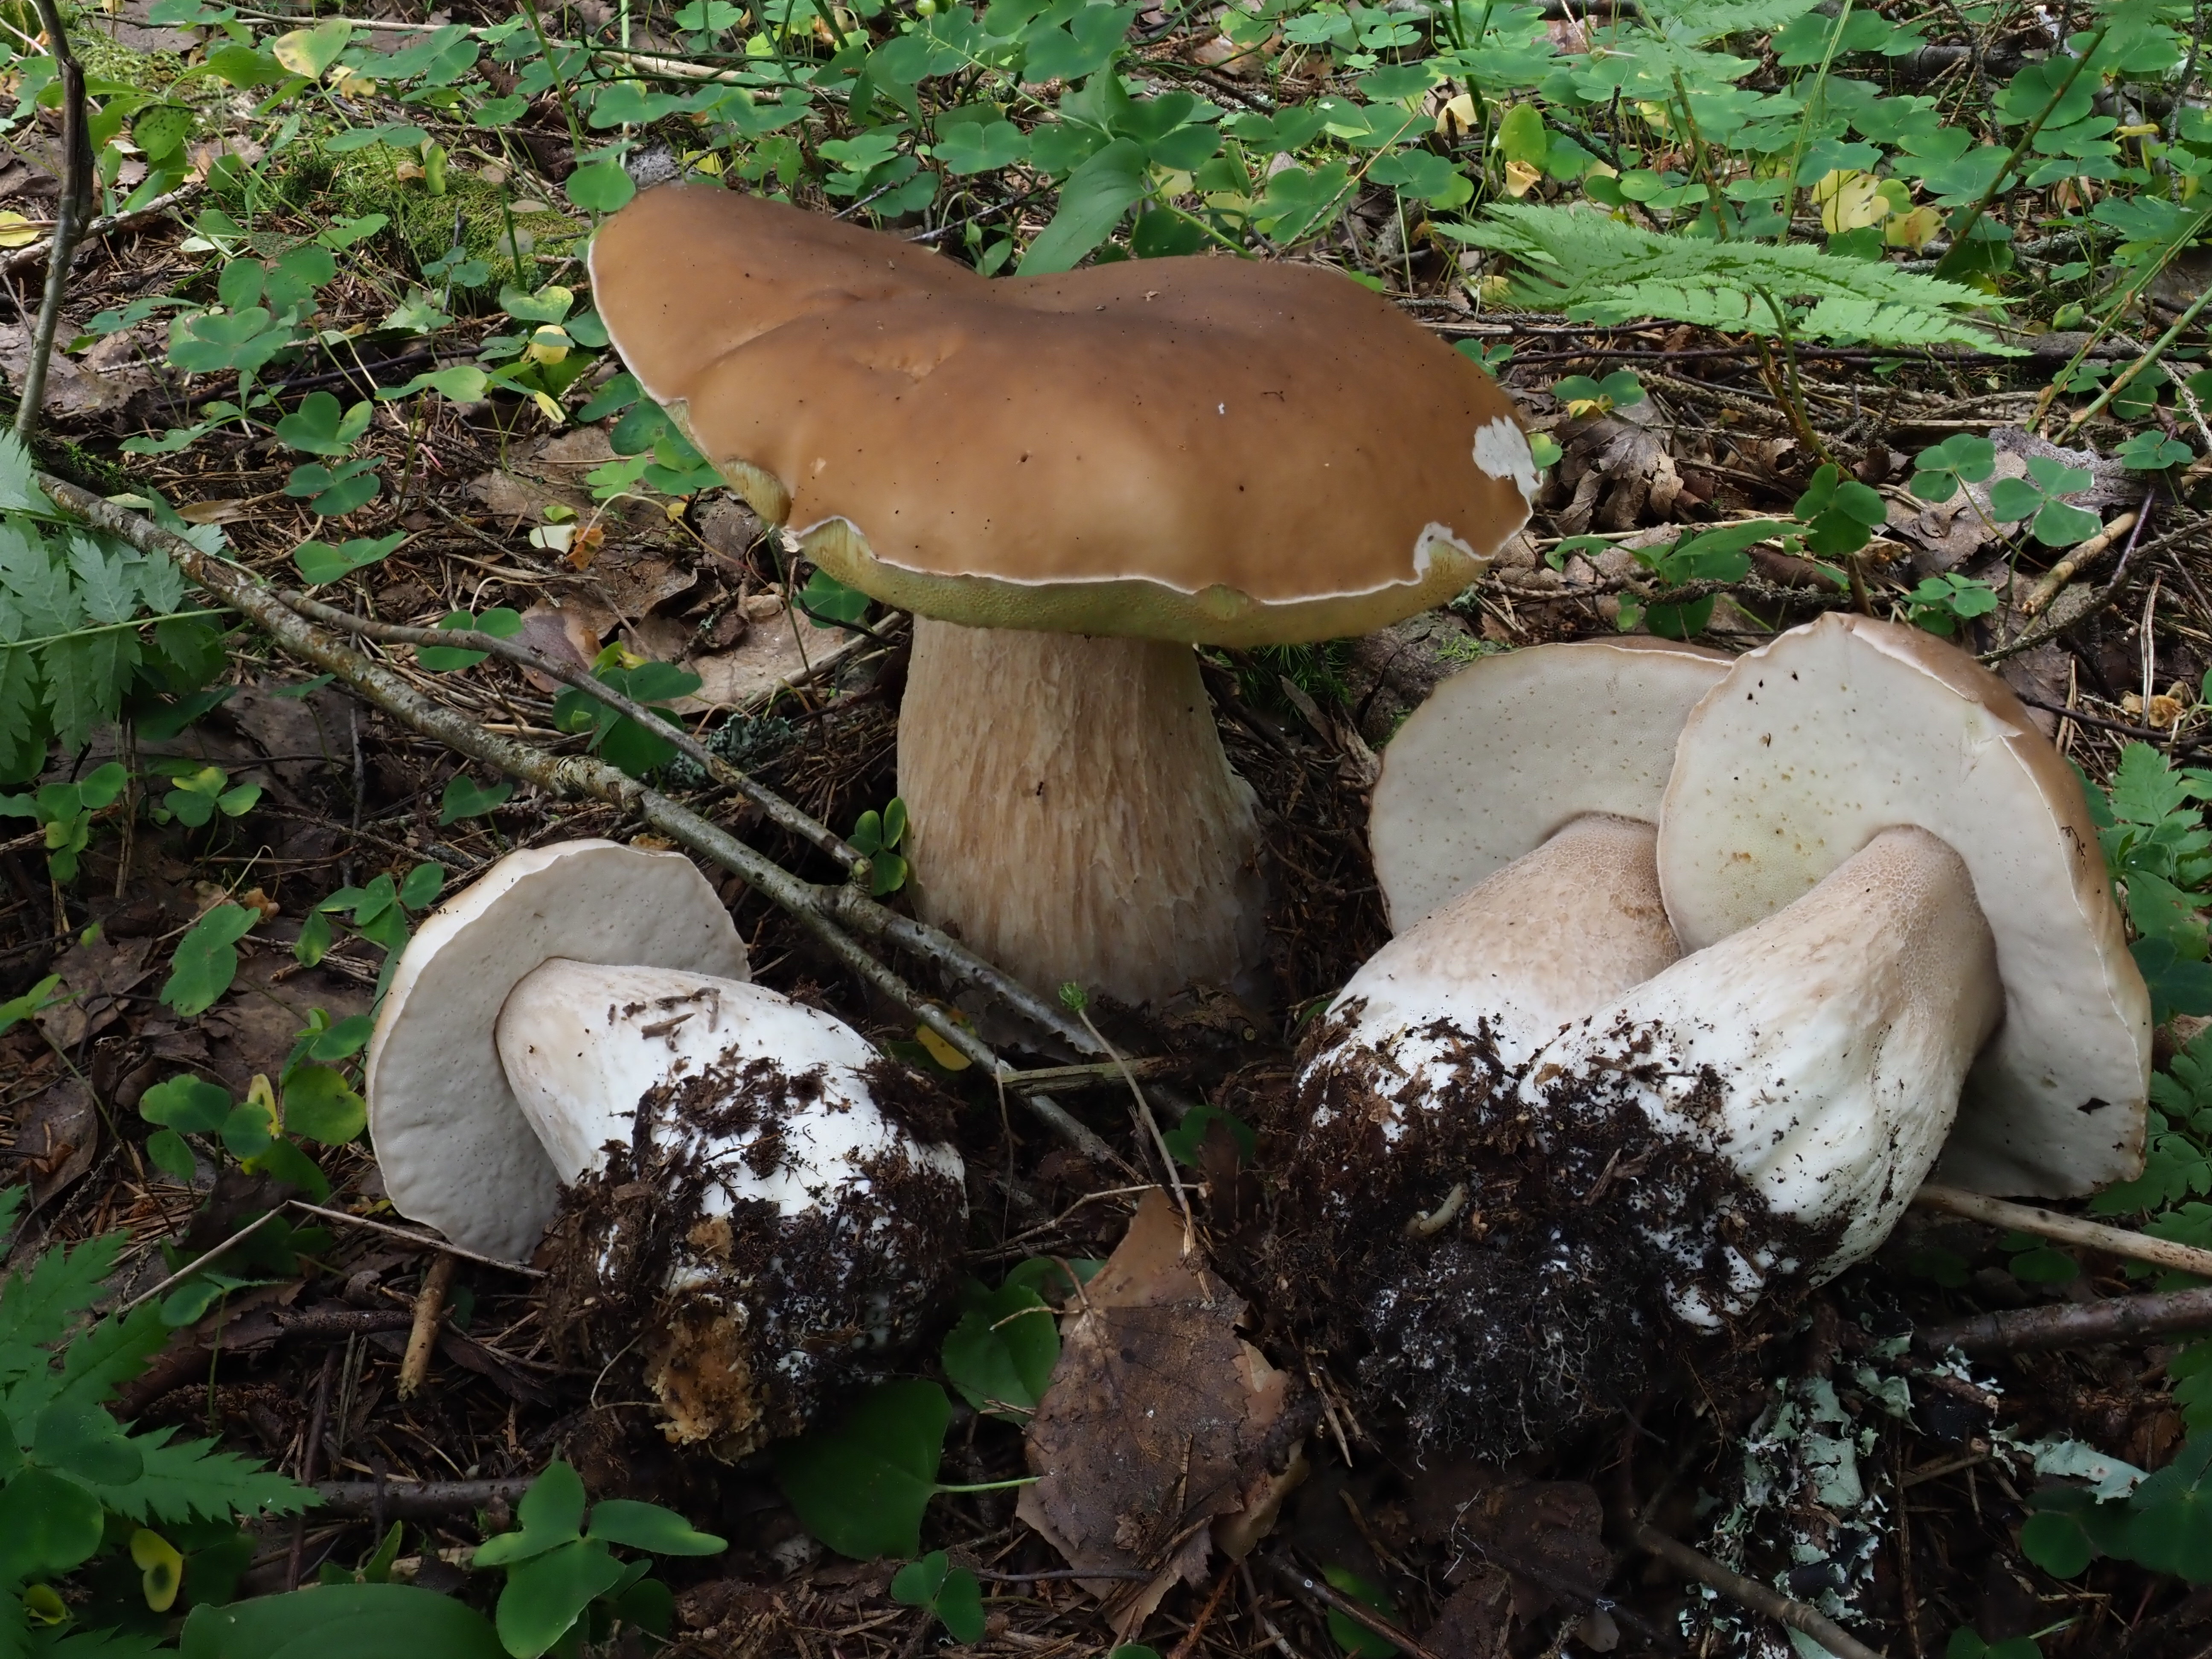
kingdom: Fungi
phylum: Basidiomycota
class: Agaricomycetes
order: Boletales
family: Boletaceae
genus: Boletus
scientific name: Boletus edulis
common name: Cep
